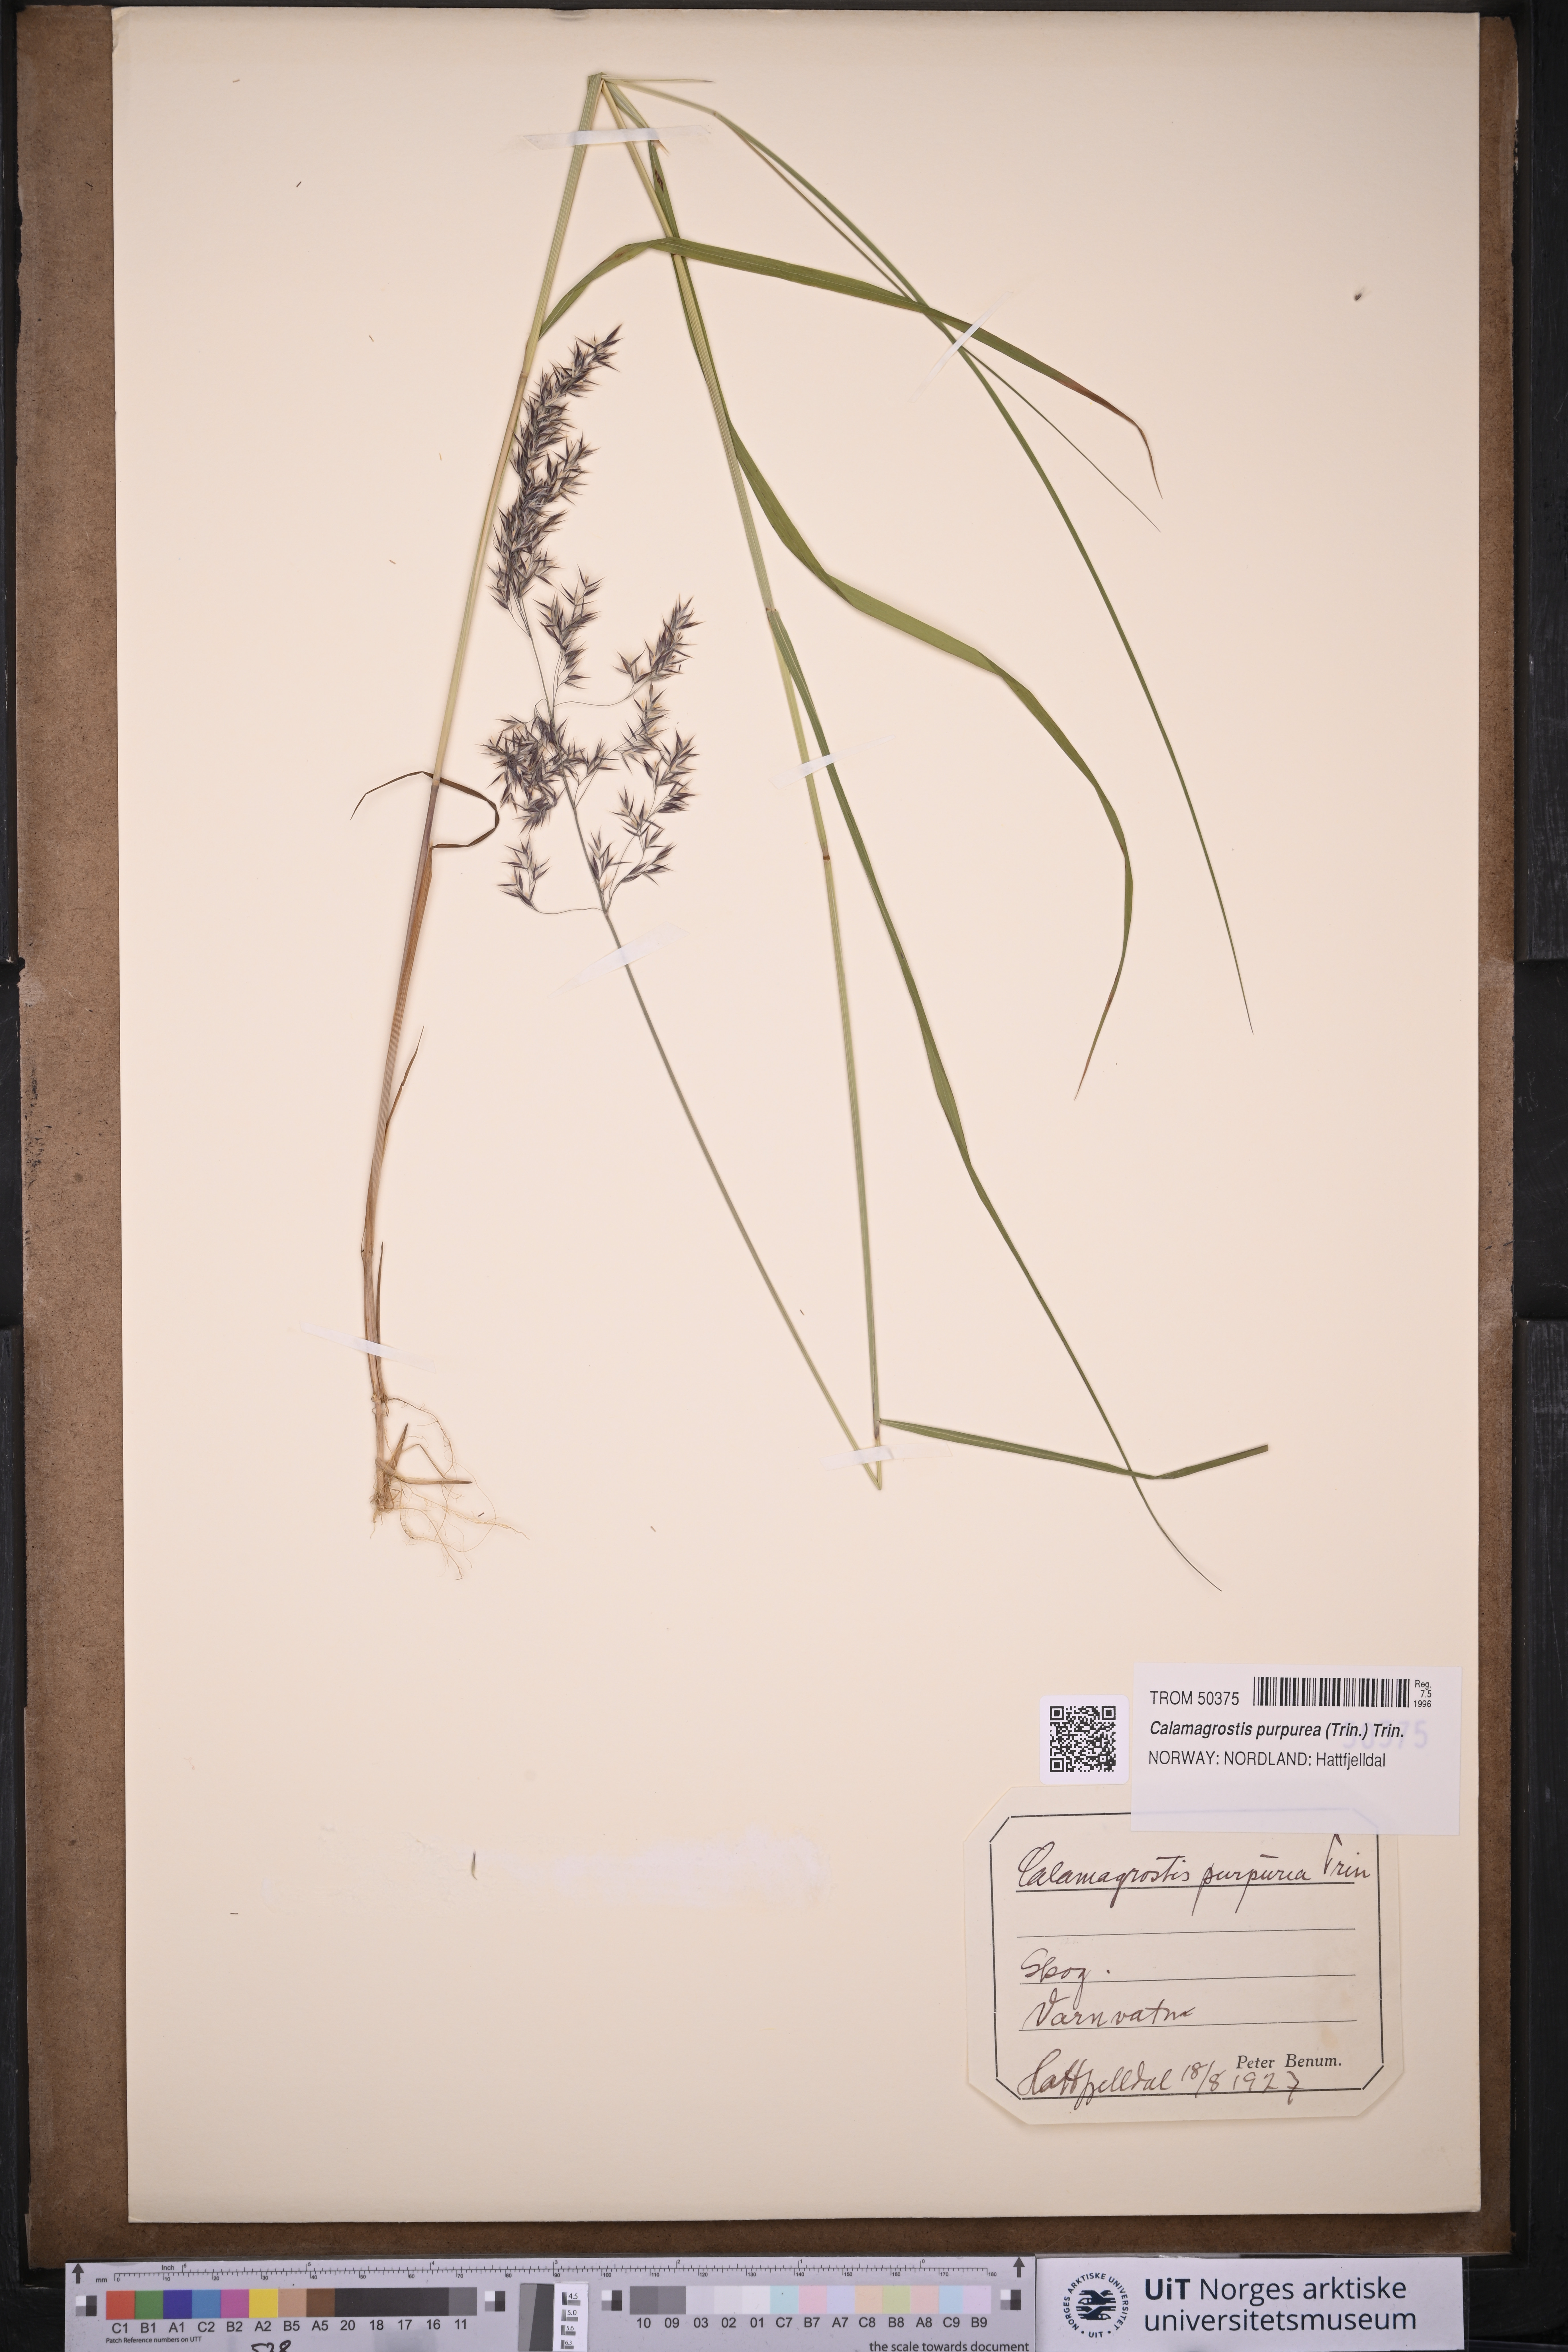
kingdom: Plantae
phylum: Tracheophyta
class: Liliopsida
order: Poales
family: Poaceae
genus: Calamagrostis
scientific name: Calamagrostis purpurea
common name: Scandinavian small-reed
